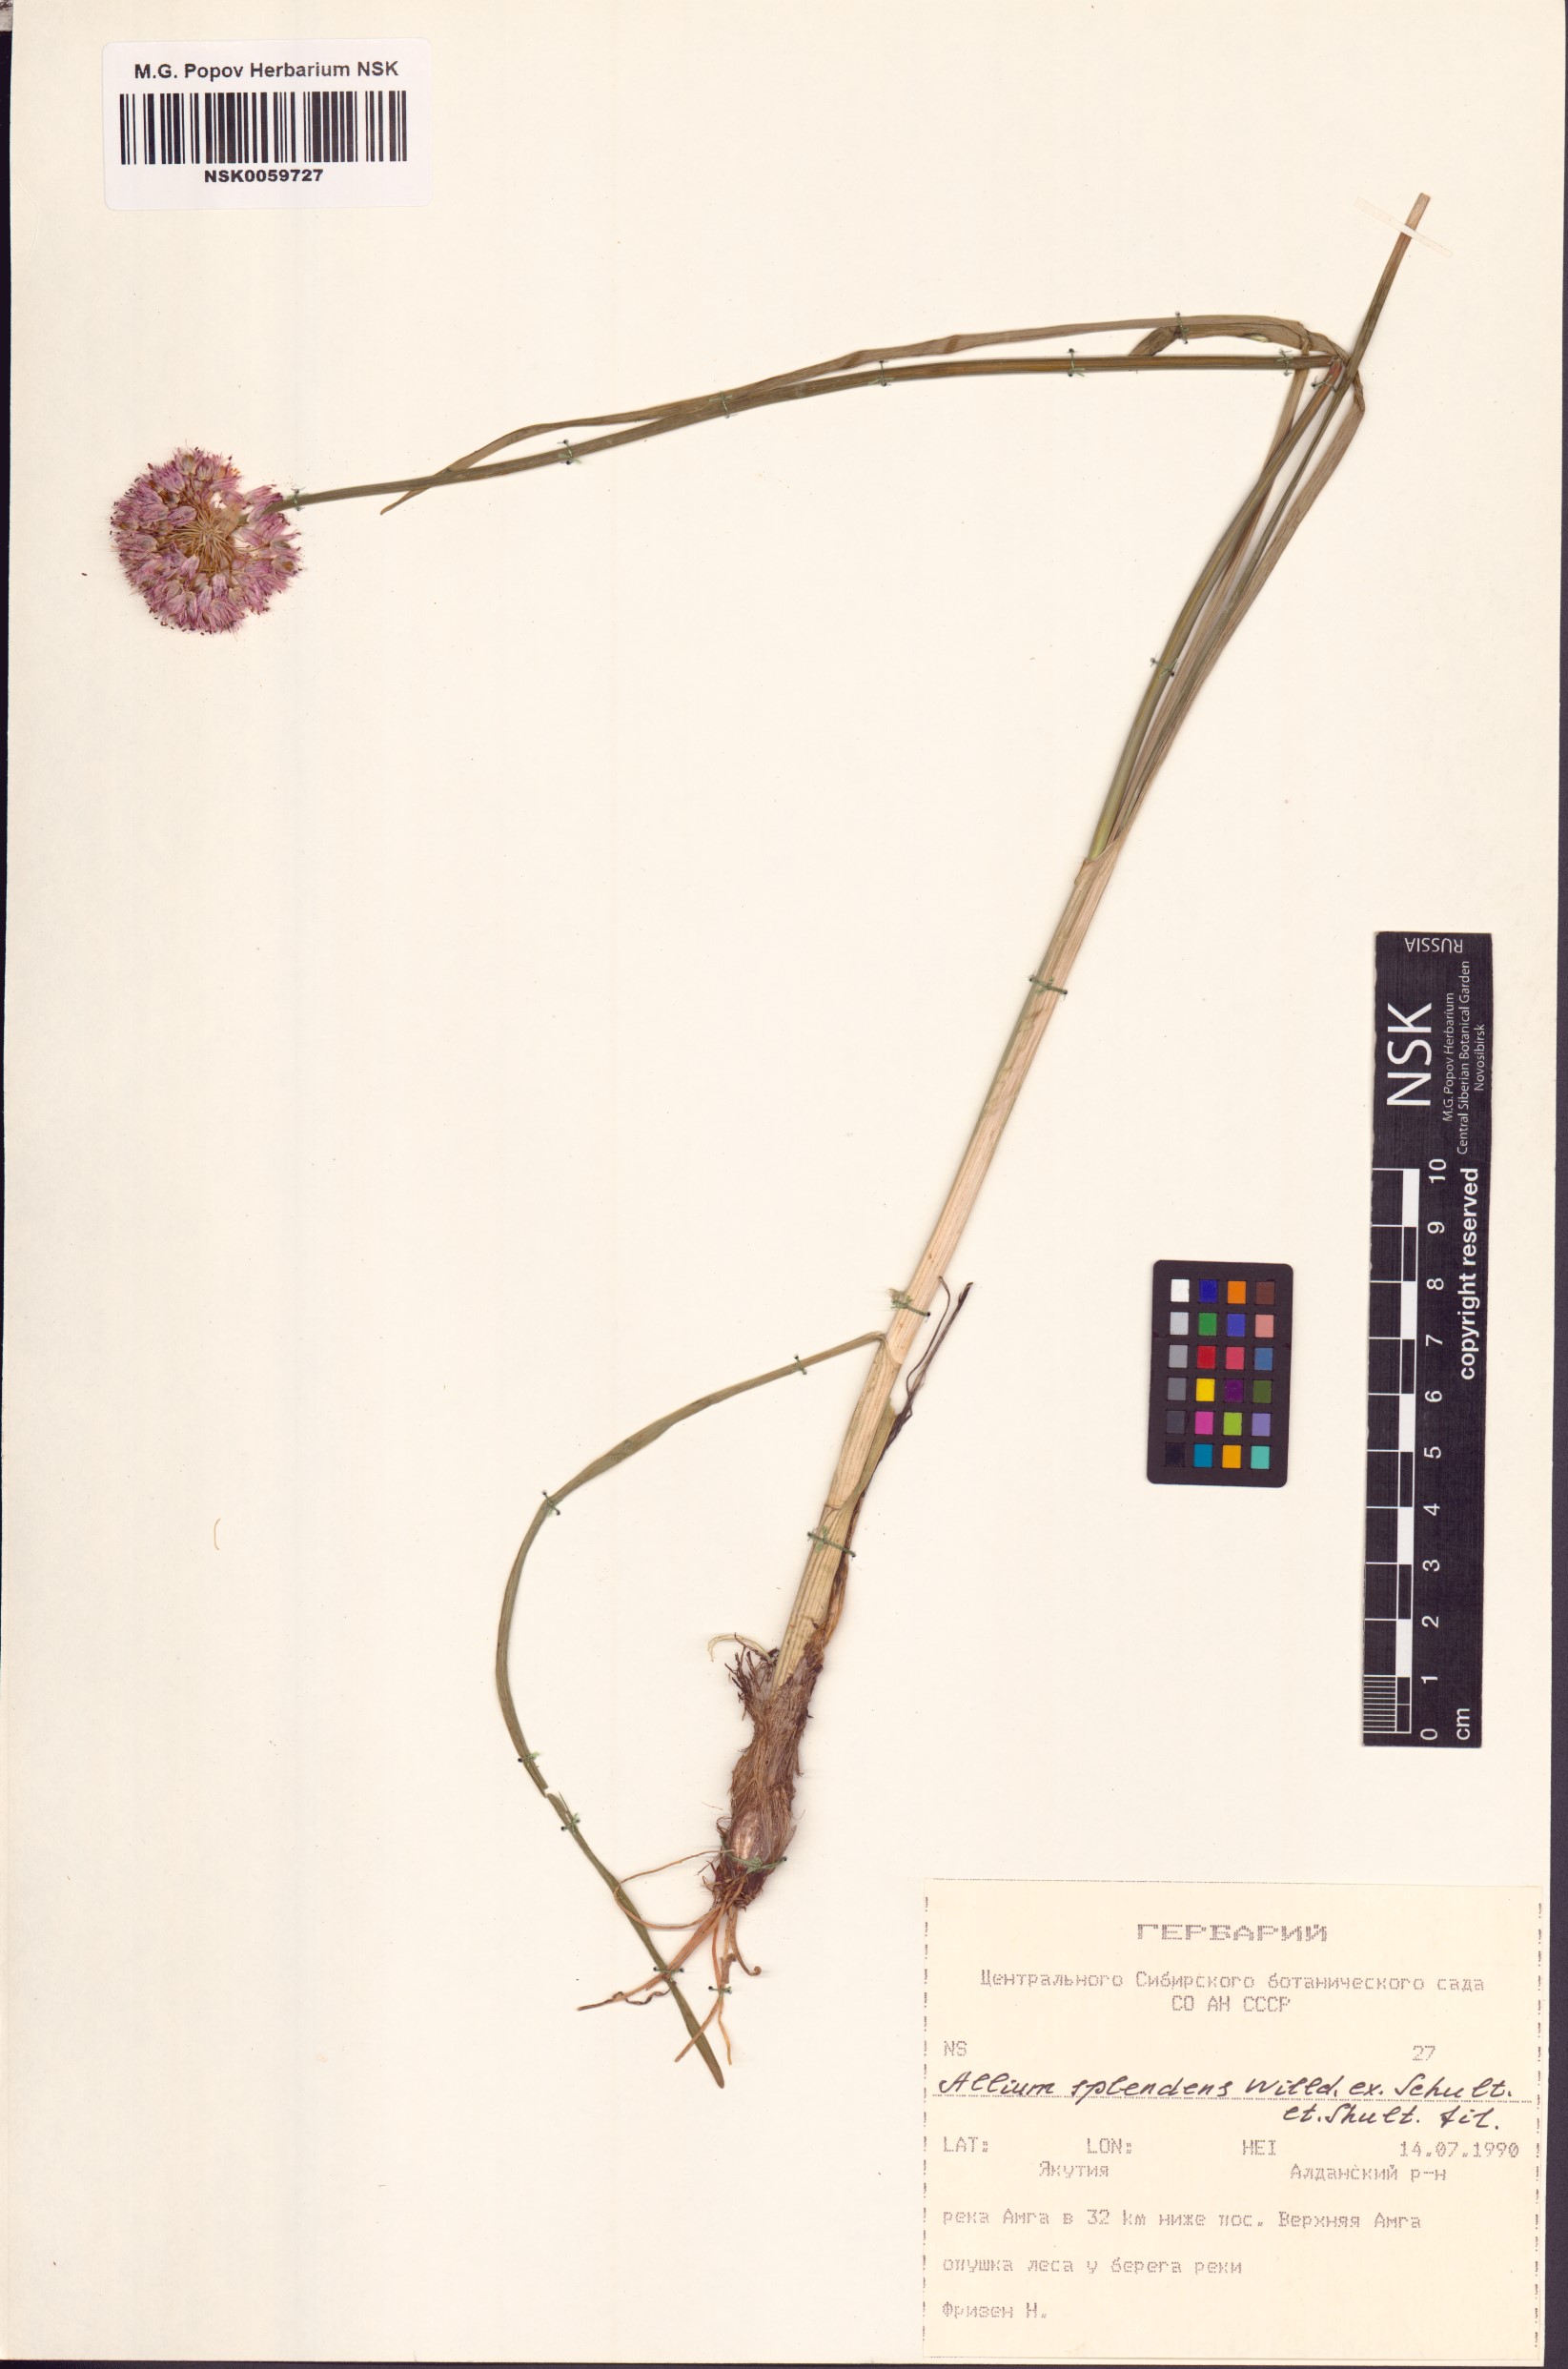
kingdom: Plantae
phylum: Tracheophyta
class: Liliopsida
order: Asparagales
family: Amaryllidaceae
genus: Allium
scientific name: Allium splendens
